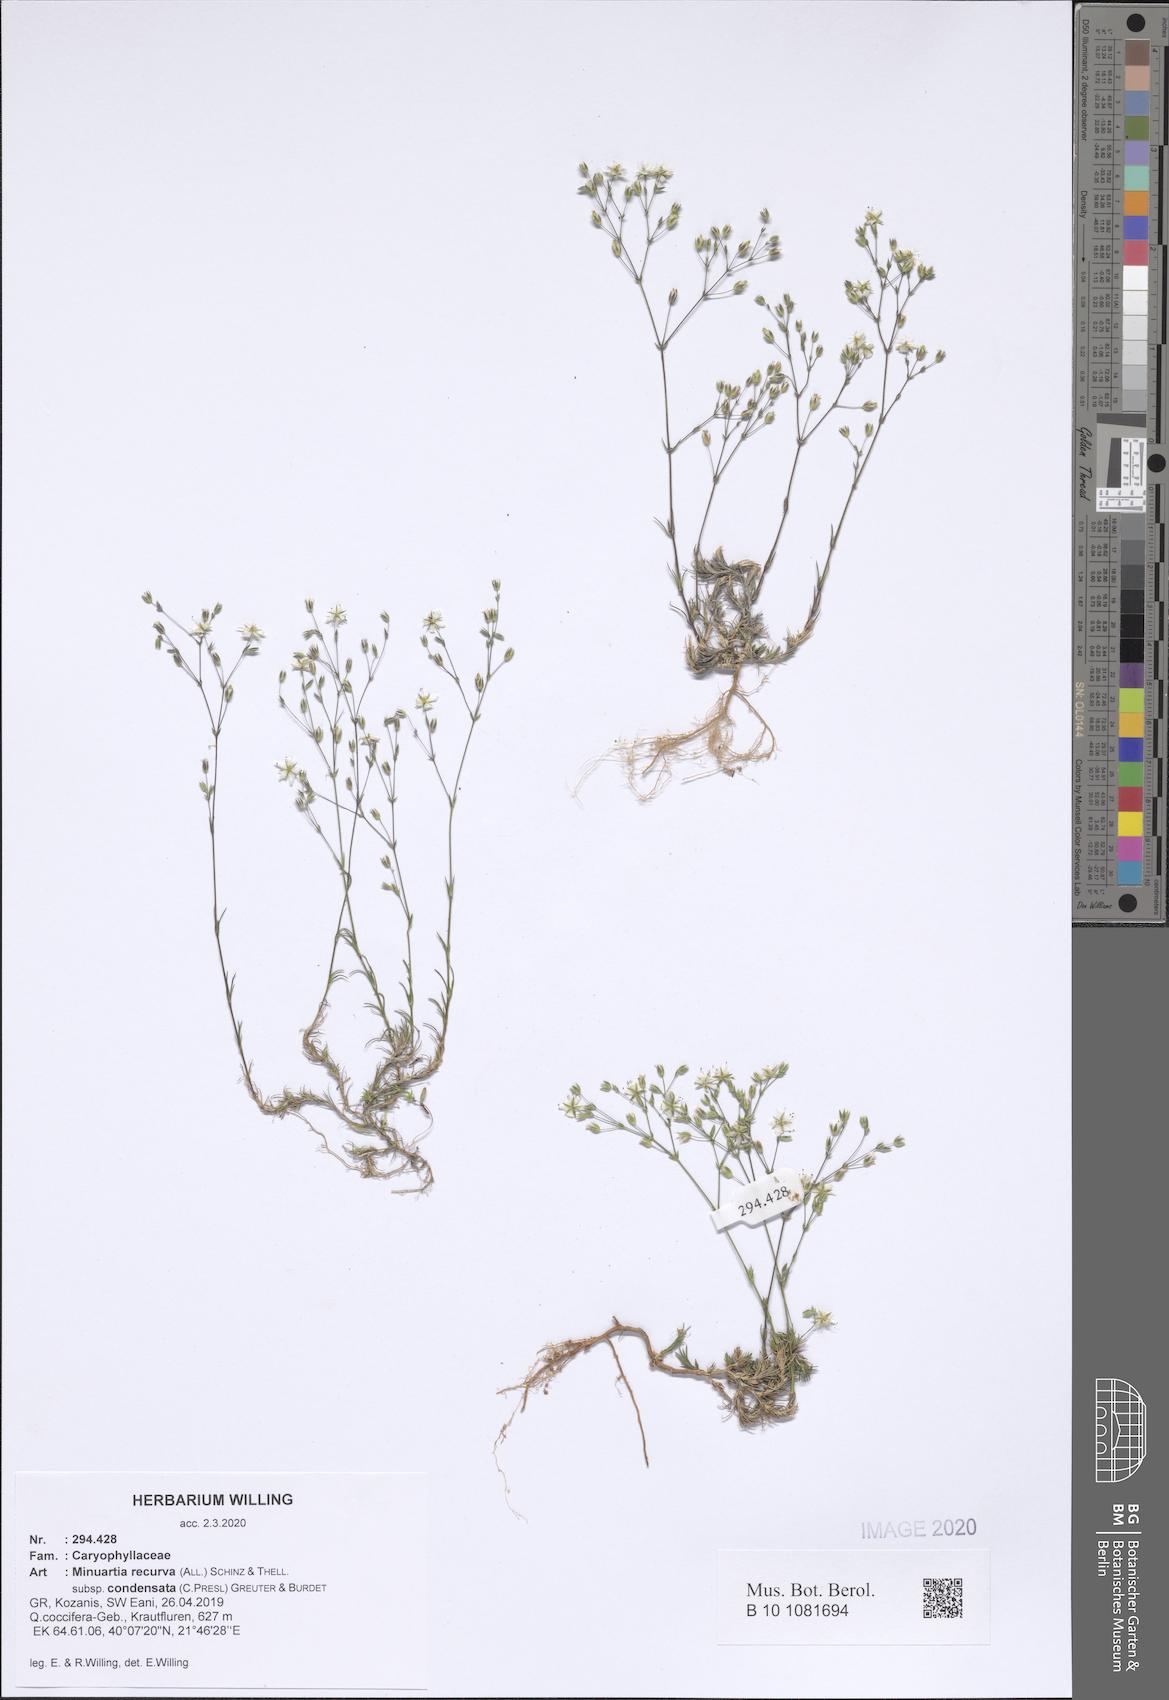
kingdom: Plantae
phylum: Tracheophyta
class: Magnoliopsida
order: Caryophyllales
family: Caryophyllaceae
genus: Minuartia
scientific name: Minuartia recurva
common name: Recurved sandwort
